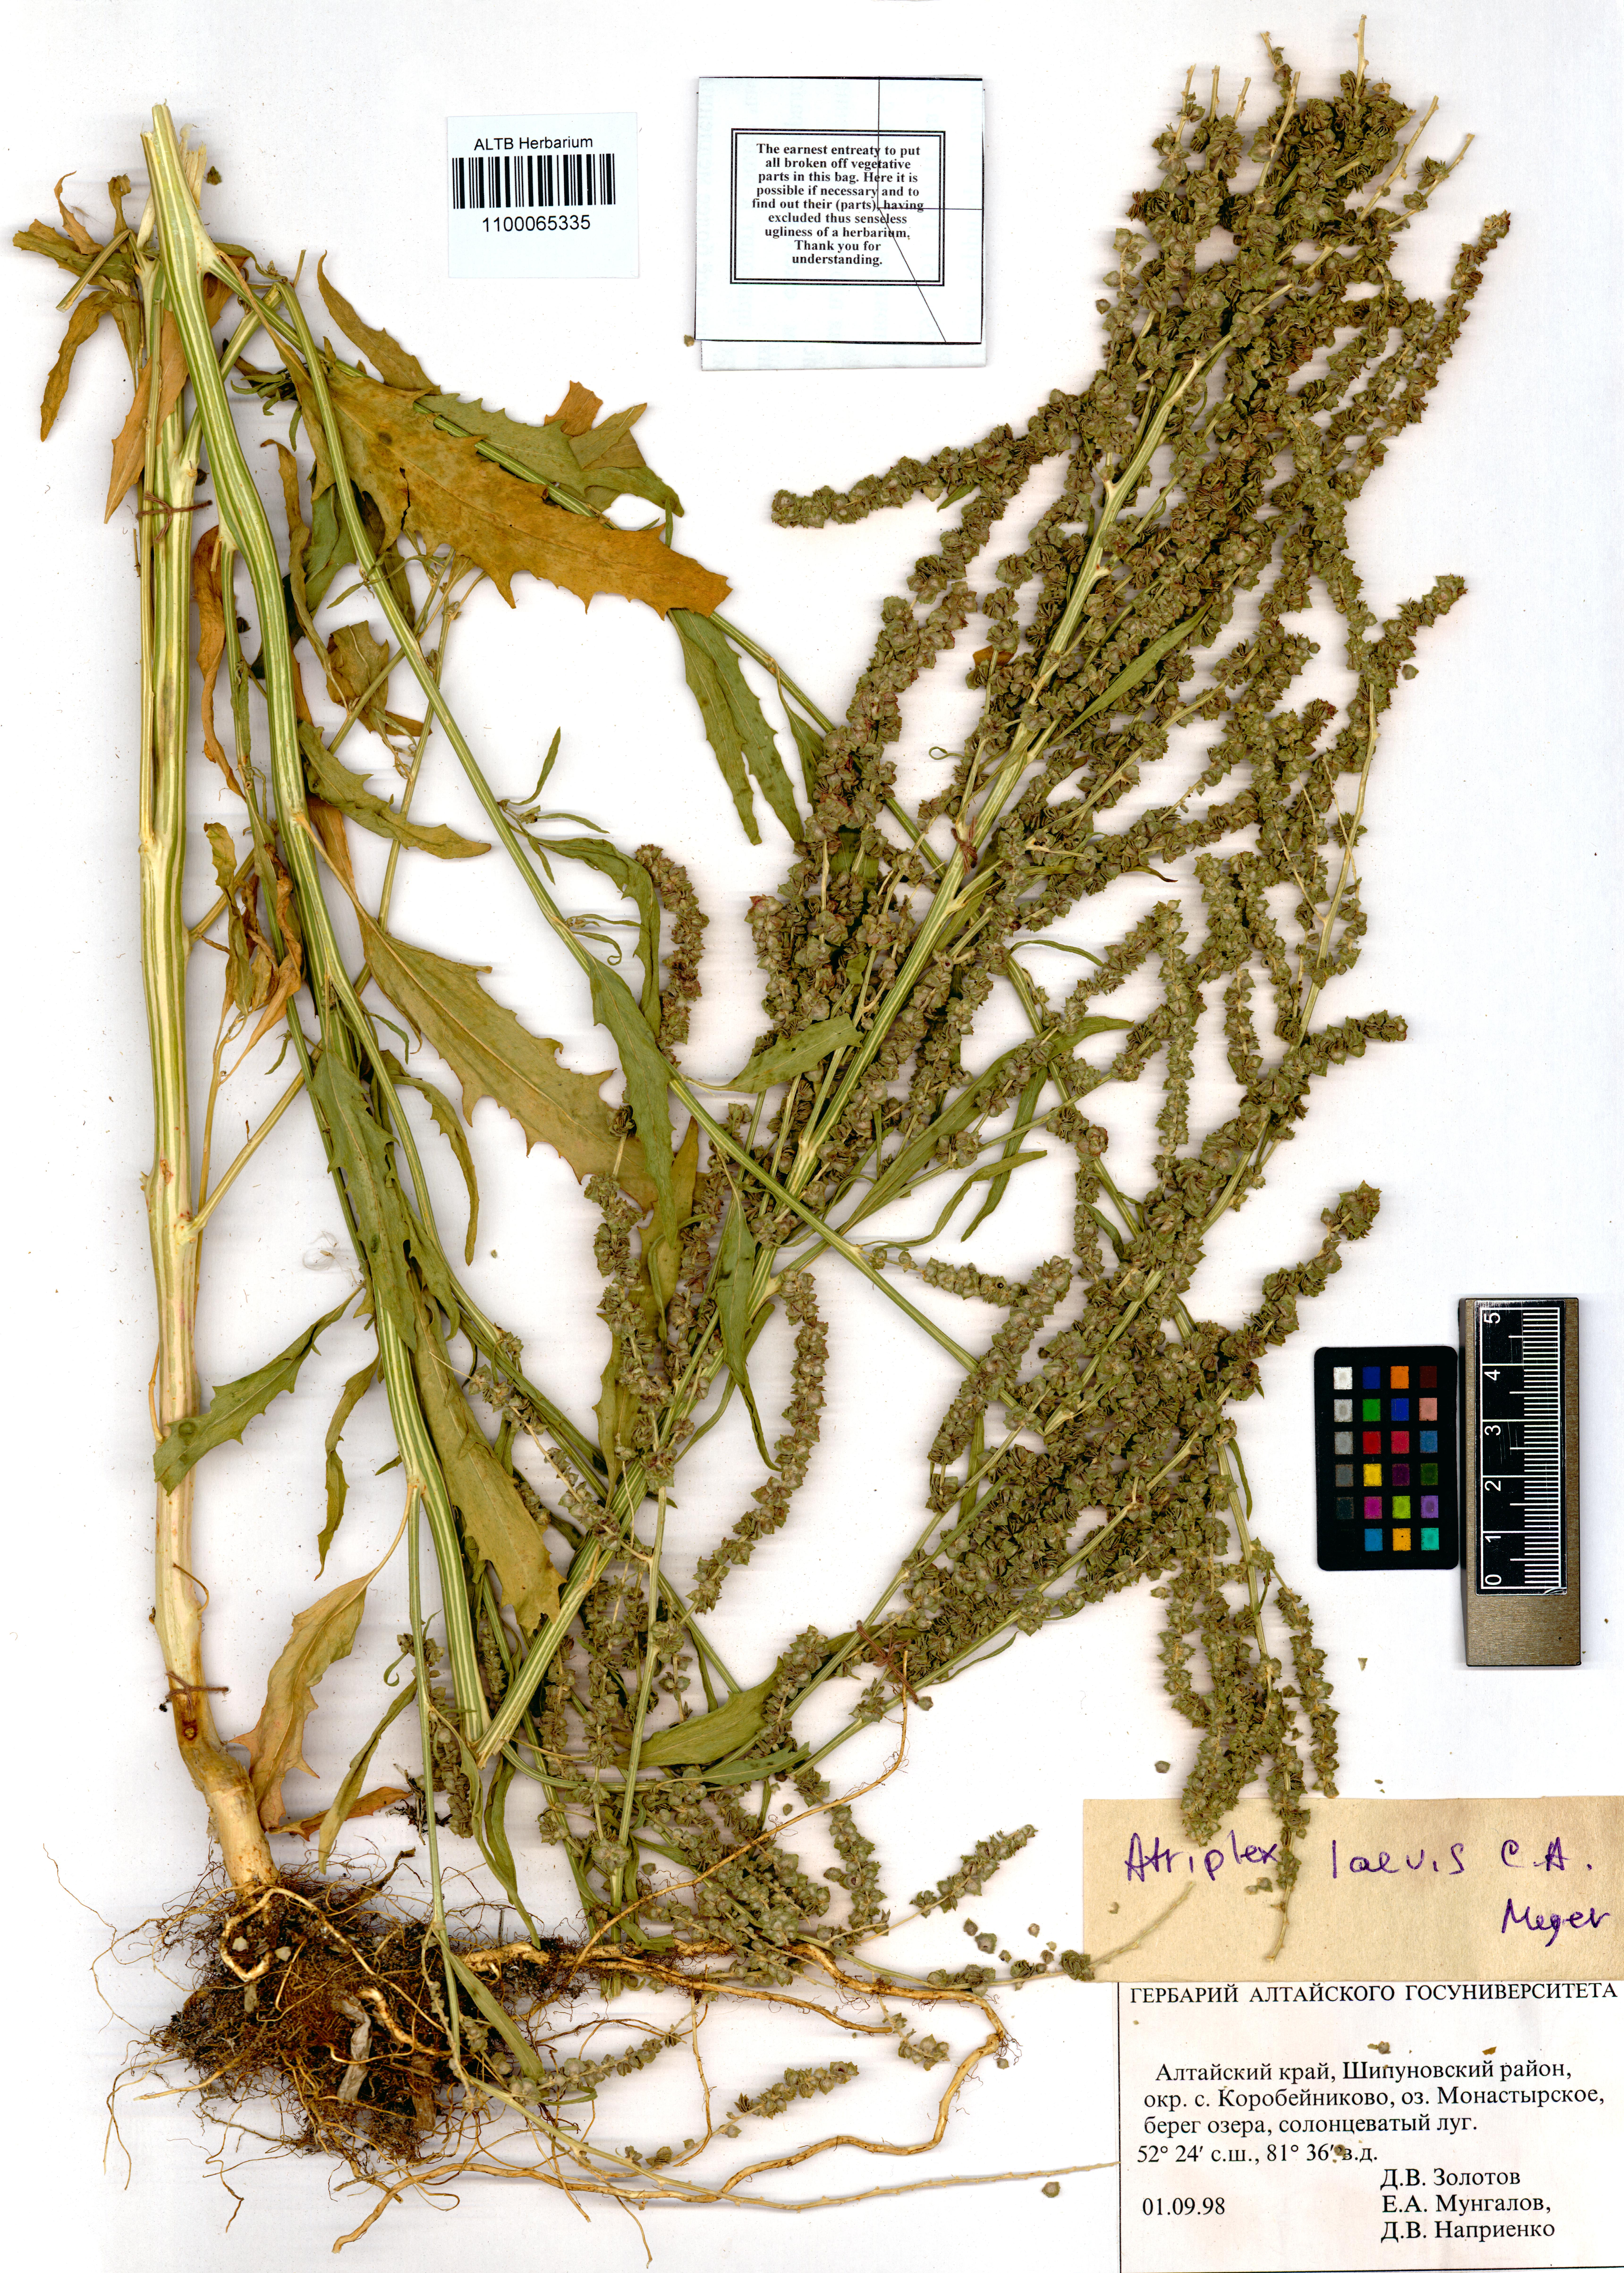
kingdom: Plantae
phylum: Tracheophyta
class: Magnoliopsida
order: Caryophyllales
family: Amaranthaceae
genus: Atriplex
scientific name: Atriplex laevis
